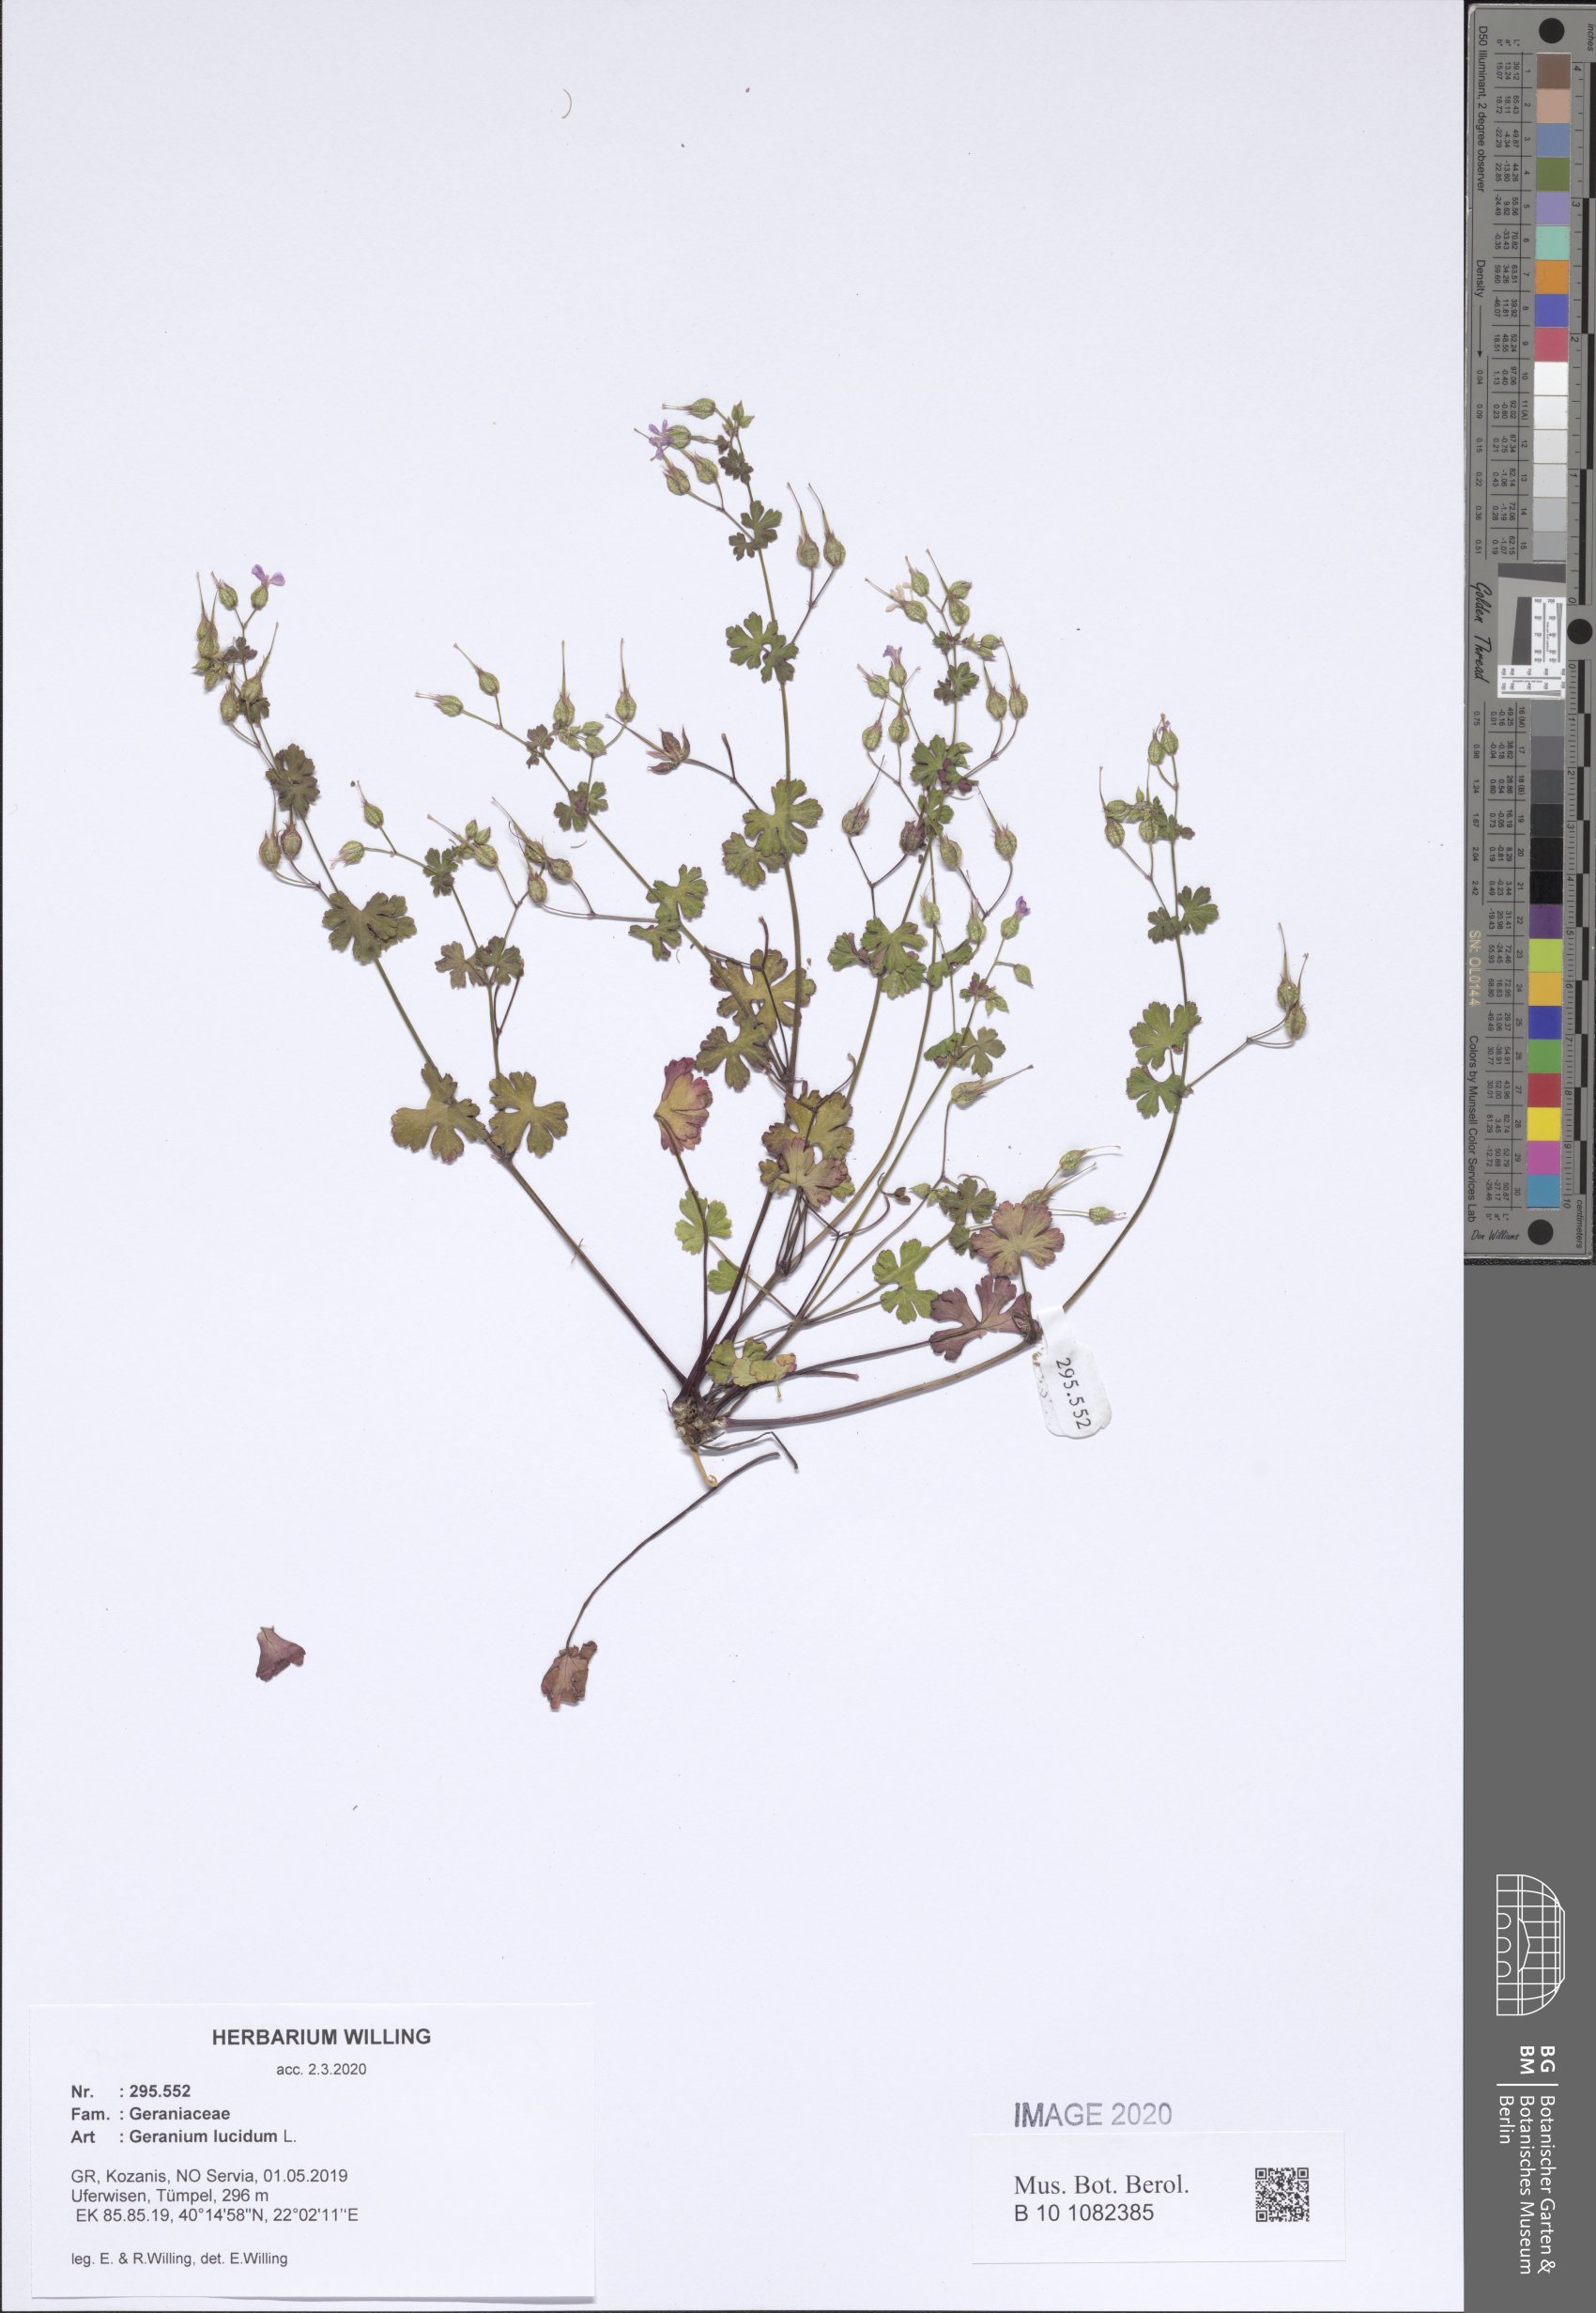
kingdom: Plantae
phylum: Tracheophyta
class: Magnoliopsida
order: Geraniales
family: Geraniaceae
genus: Geranium
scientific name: Geranium lucidum
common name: Shining crane's-bill
